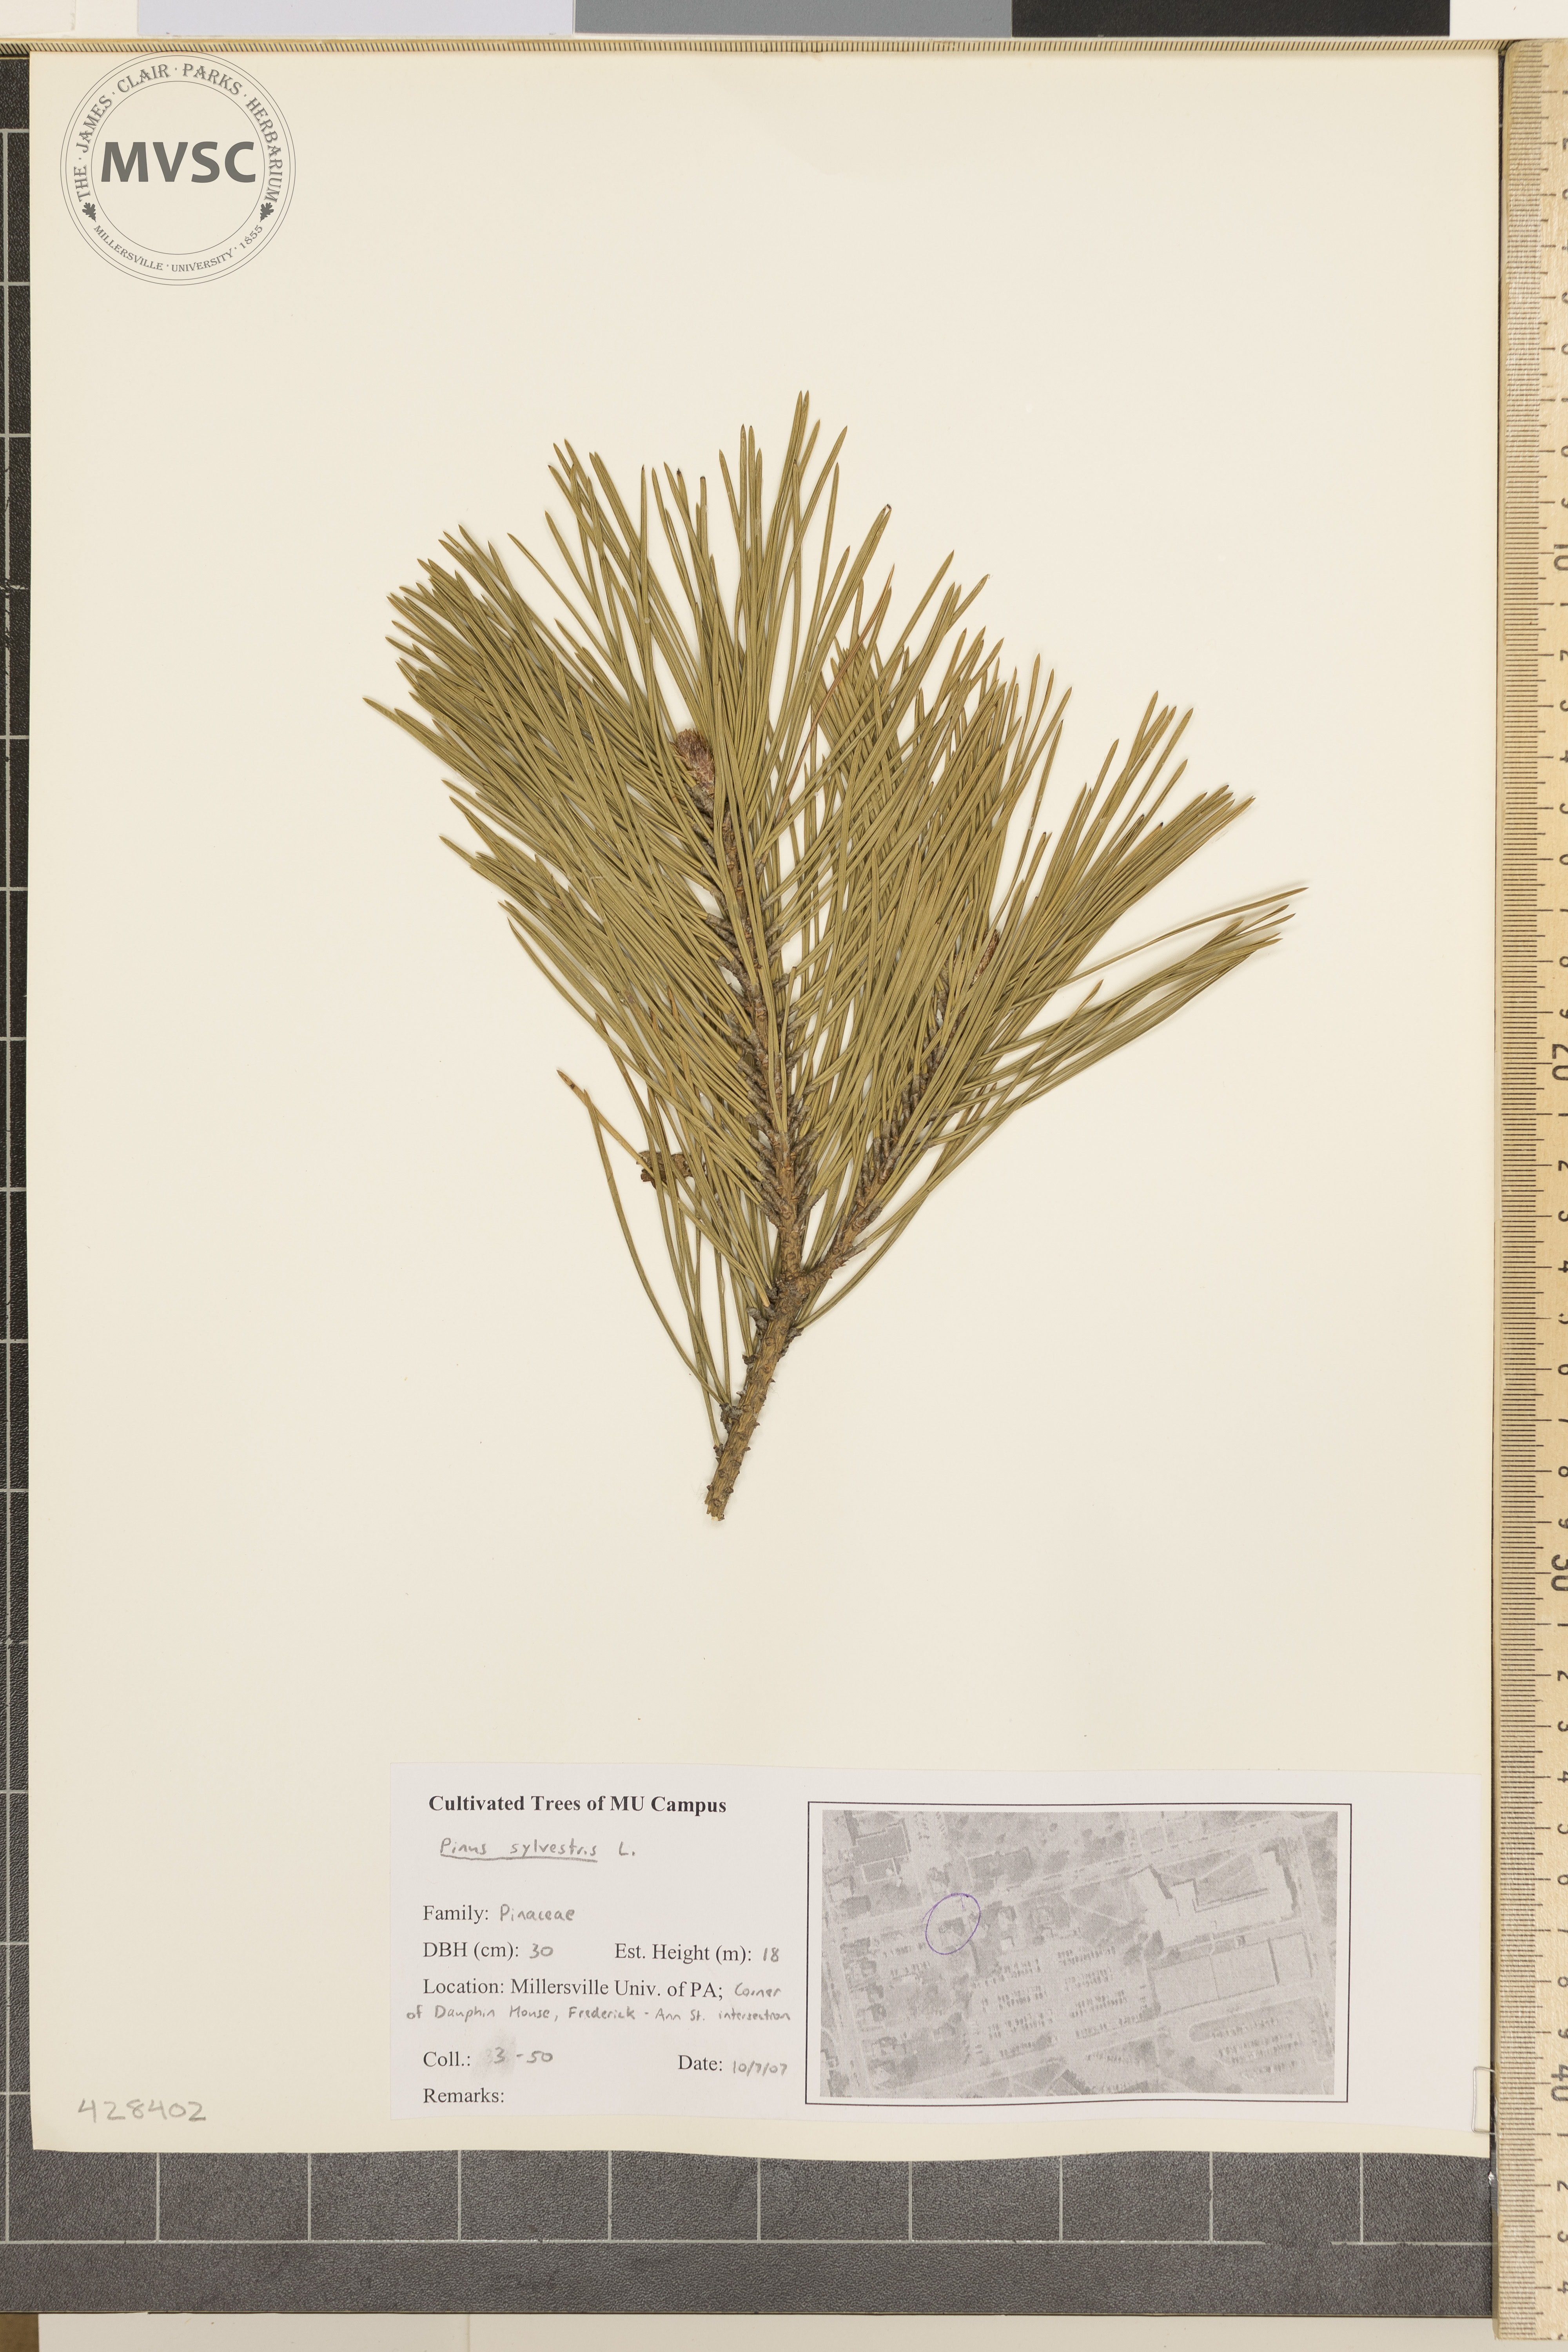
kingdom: Plantae
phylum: Tracheophyta
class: Pinopsida
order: Pinales
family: Pinaceae
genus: Pinus
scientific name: Pinus sylvestris
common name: Scots pine
